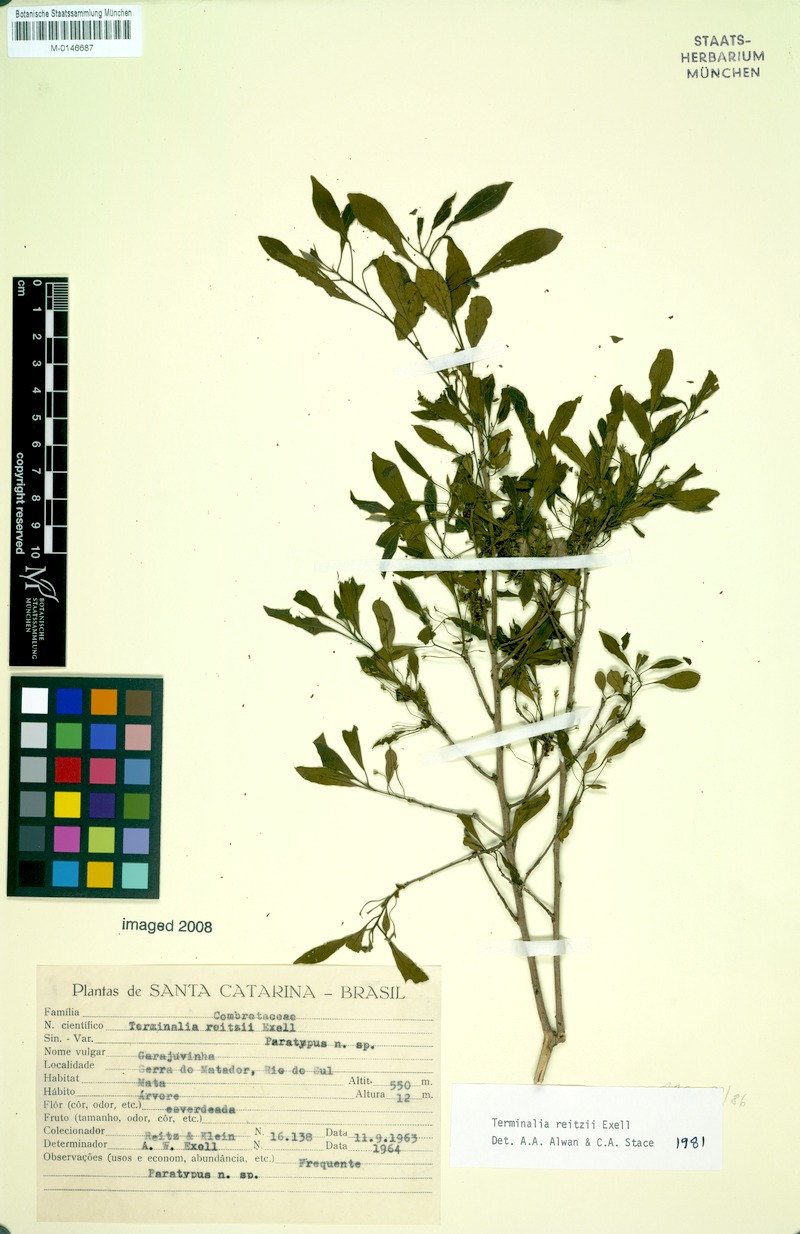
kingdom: Plantae
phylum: Tracheophyta
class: Magnoliopsida
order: Myrtales
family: Combretaceae
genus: Terminalia
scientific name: Terminalia reitzii
